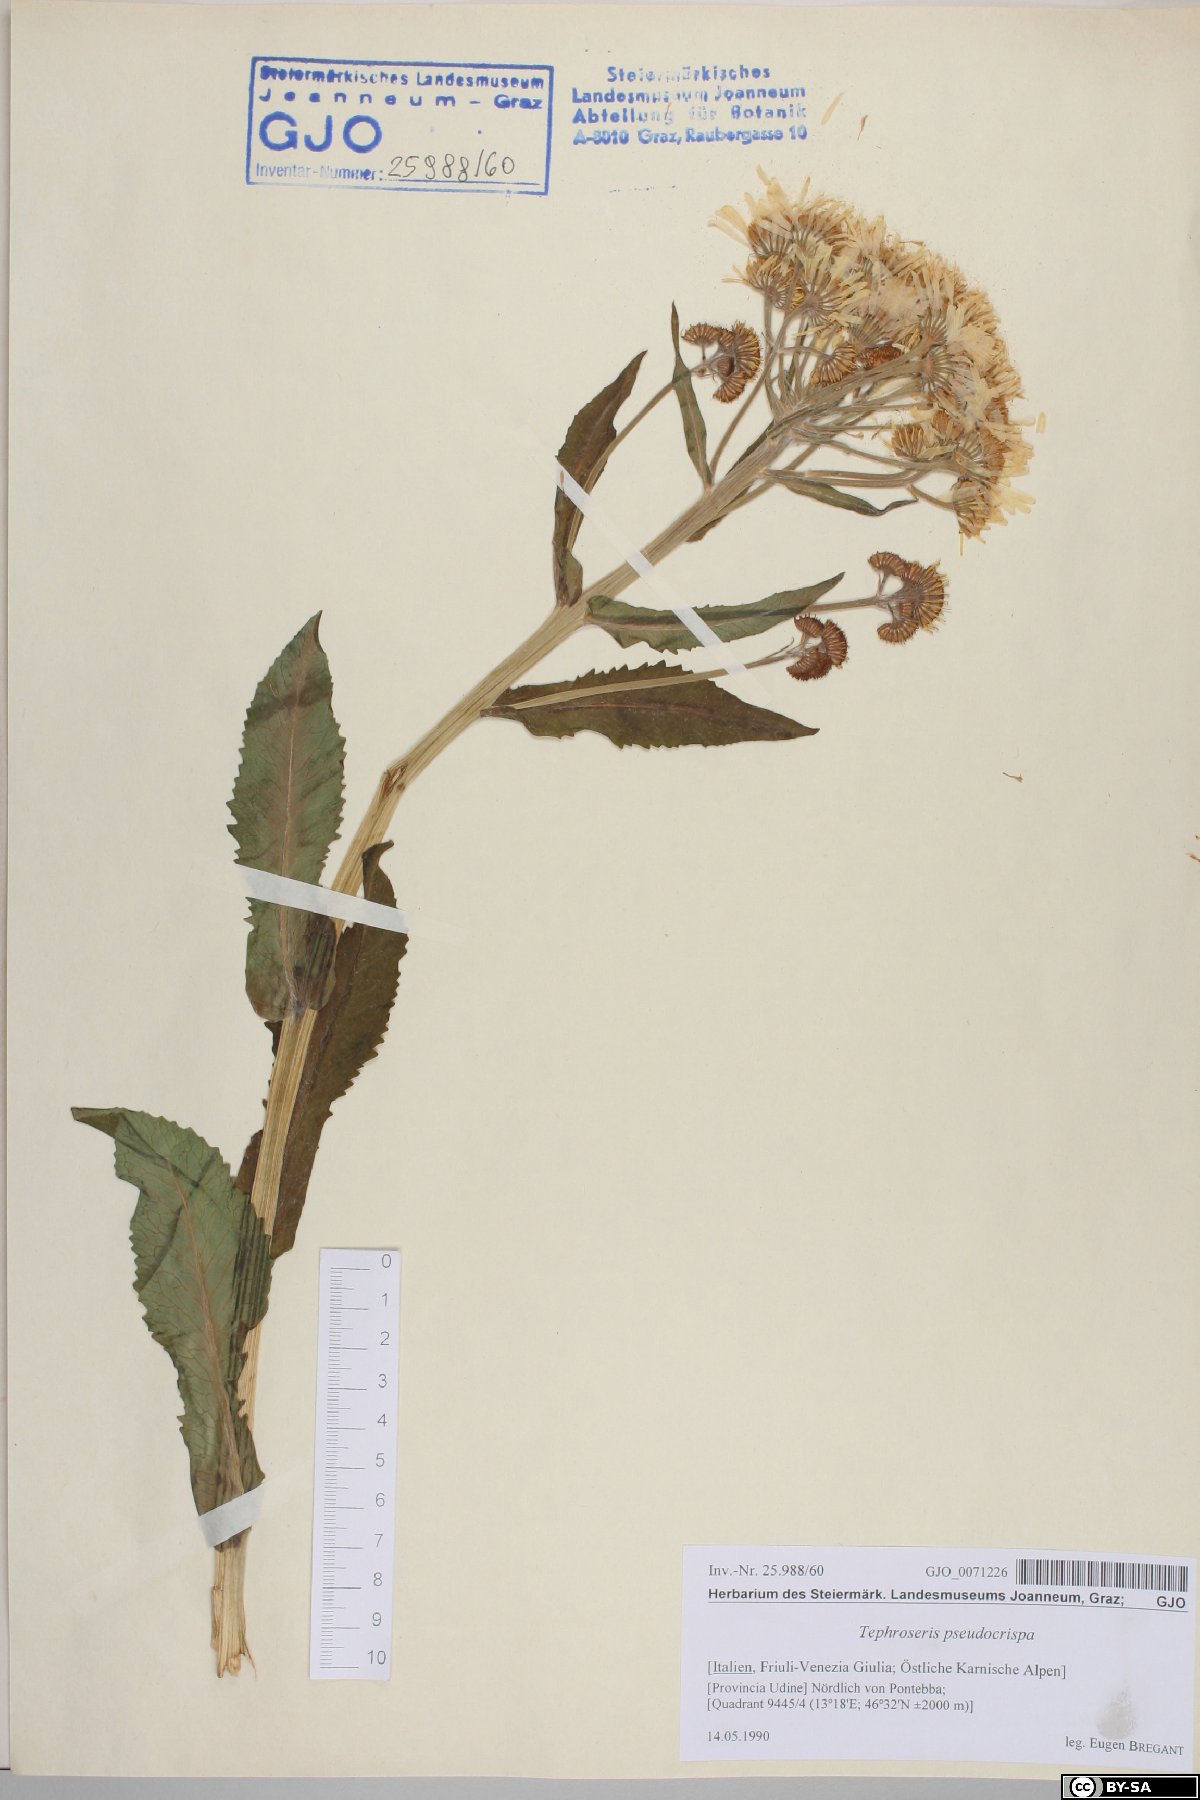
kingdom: Plantae
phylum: Tracheophyta
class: Magnoliopsida
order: Asterales
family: Asteraceae
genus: Tephroseris
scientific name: Tephroseris longifolia
